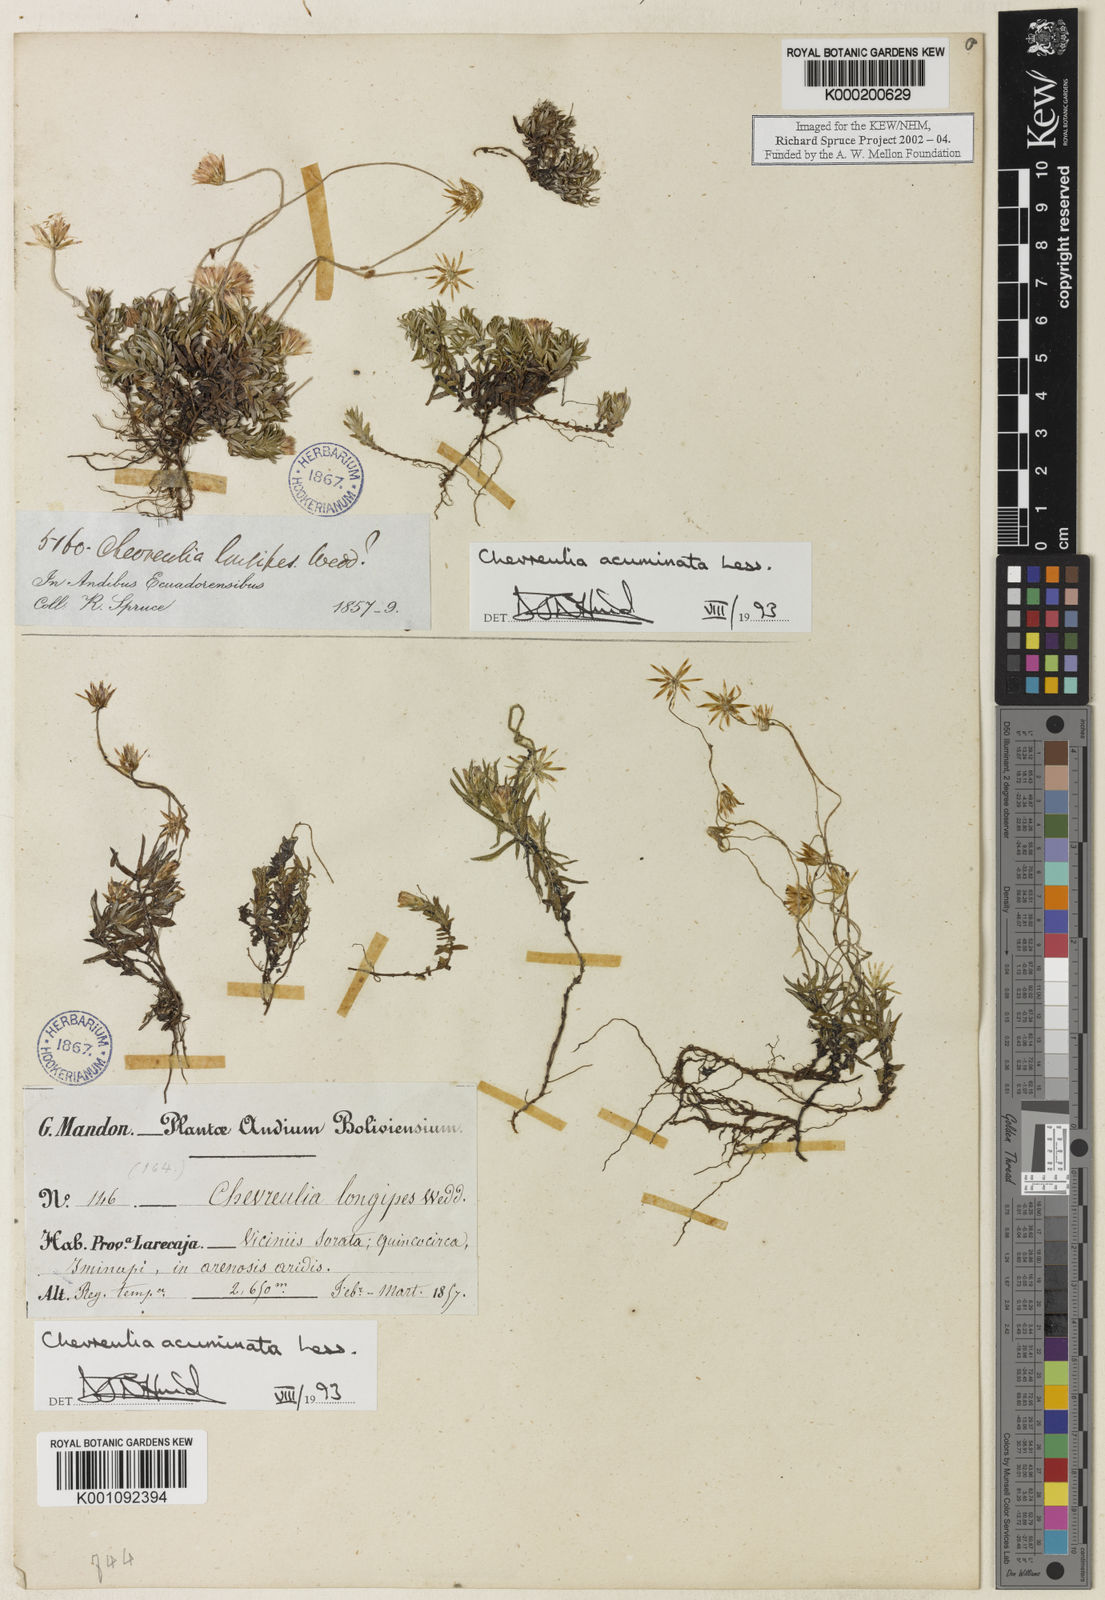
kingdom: Plantae
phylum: Tracheophyta
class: Magnoliopsida
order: Asterales
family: Asteraceae
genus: Chevreulia
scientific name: Chevreulia acuminata
